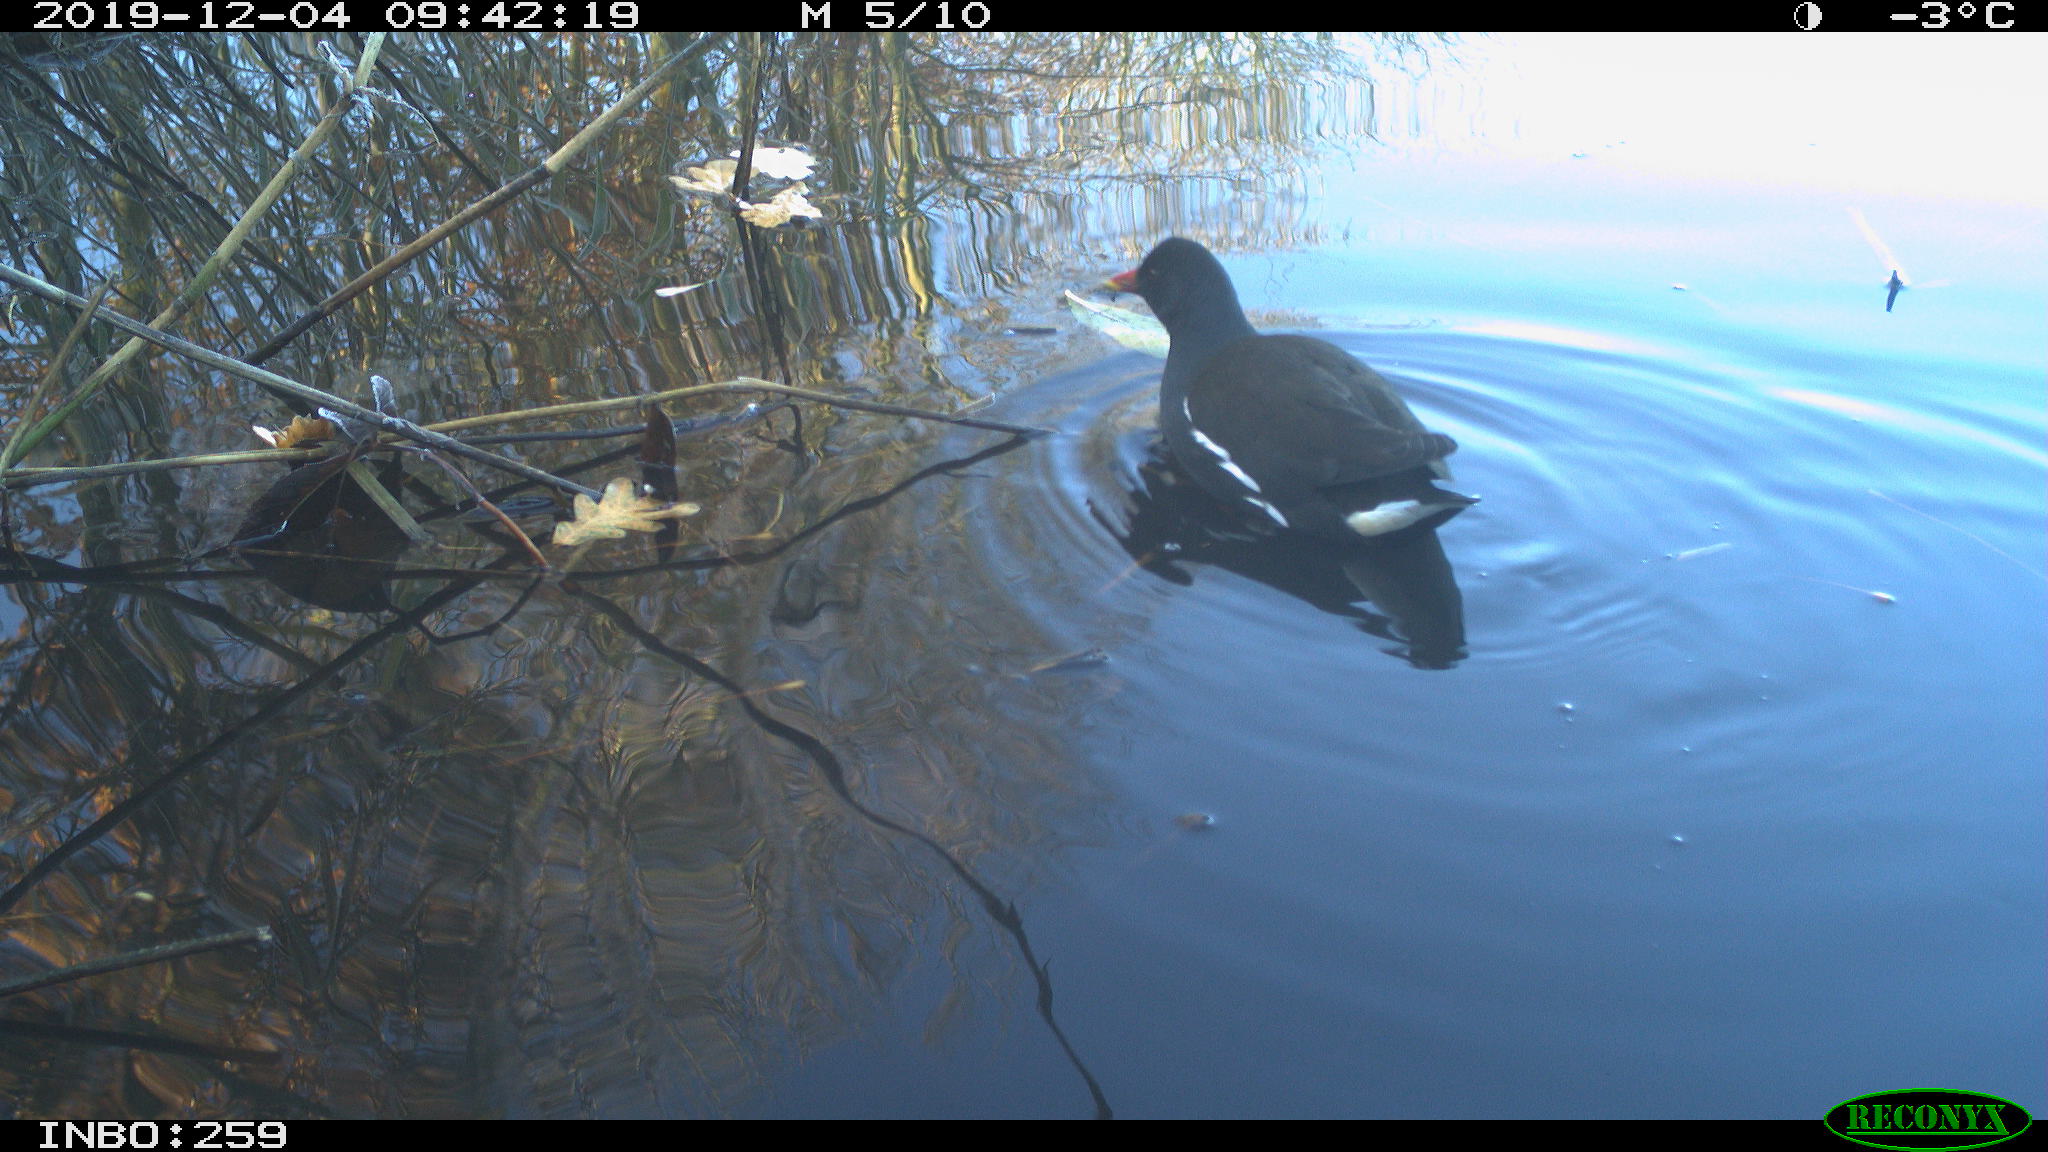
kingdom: Animalia
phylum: Chordata
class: Aves
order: Gruiformes
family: Rallidae
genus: Gallinula
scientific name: Gallinula chloropus
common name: Common moorhen
